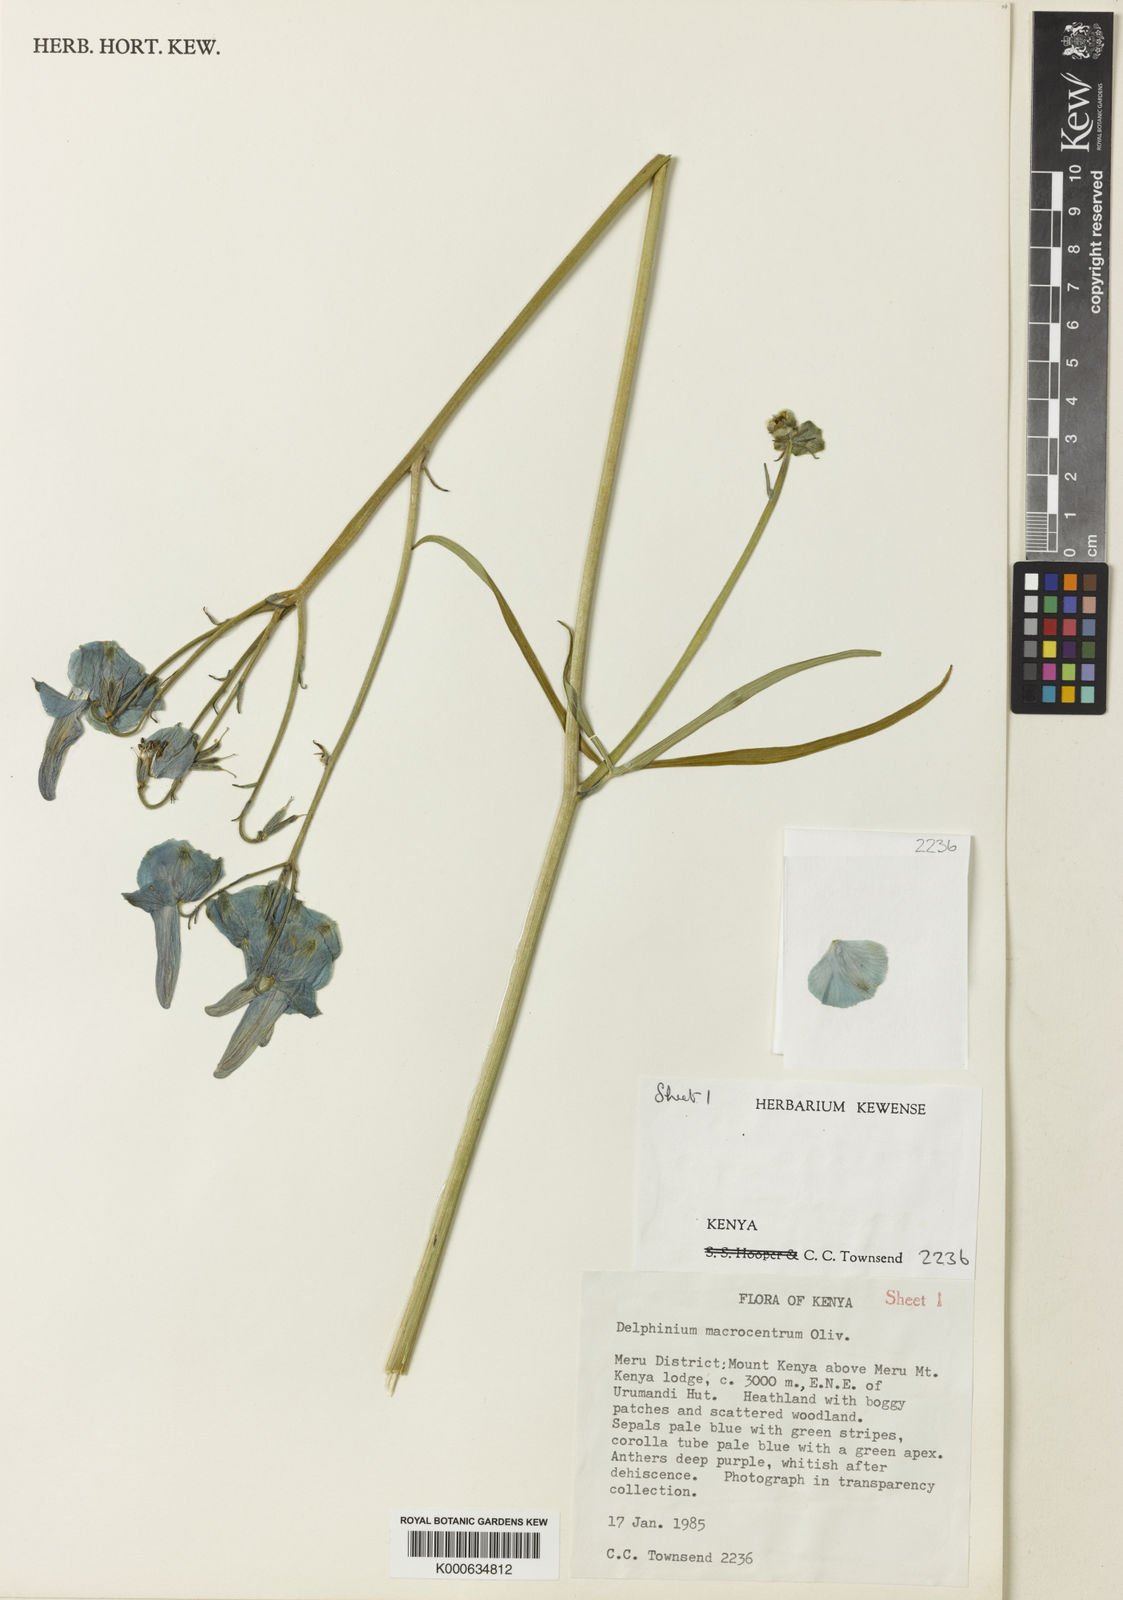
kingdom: Plantae
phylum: Tracheophyta
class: Magnoliopsida
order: Ranunculales
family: Ranunculaceae
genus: Delphinium
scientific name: Delphinium macrocentrum
